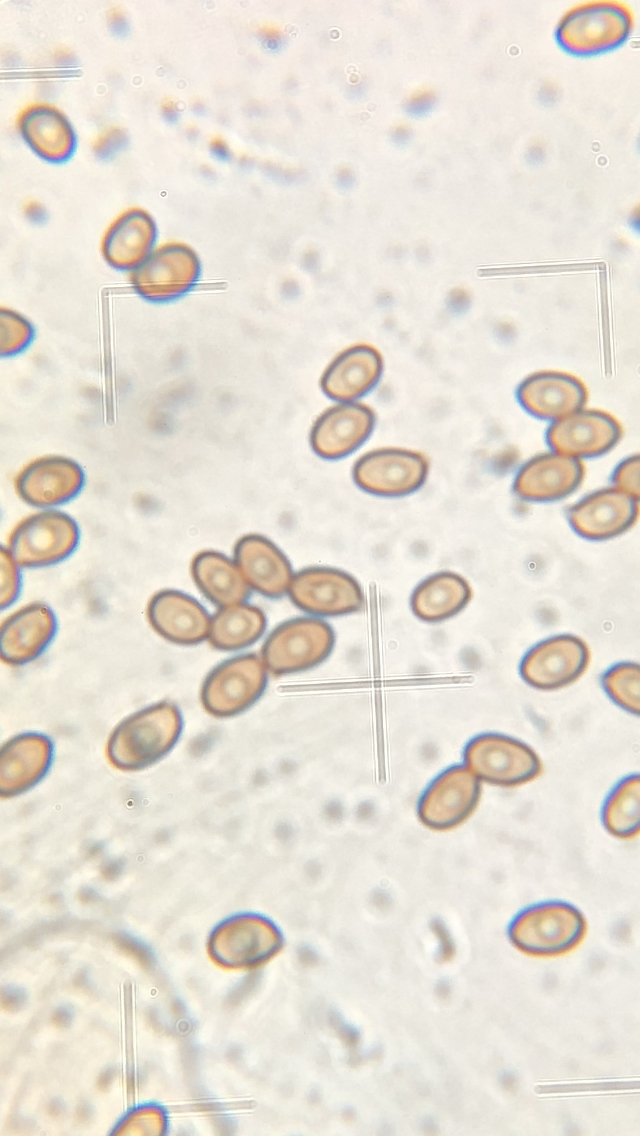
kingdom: Fungi
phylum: Basidiomycota
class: Agaricomycetes
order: Agaricales
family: Agaricaceae
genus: Agaricus
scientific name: Agaricus
